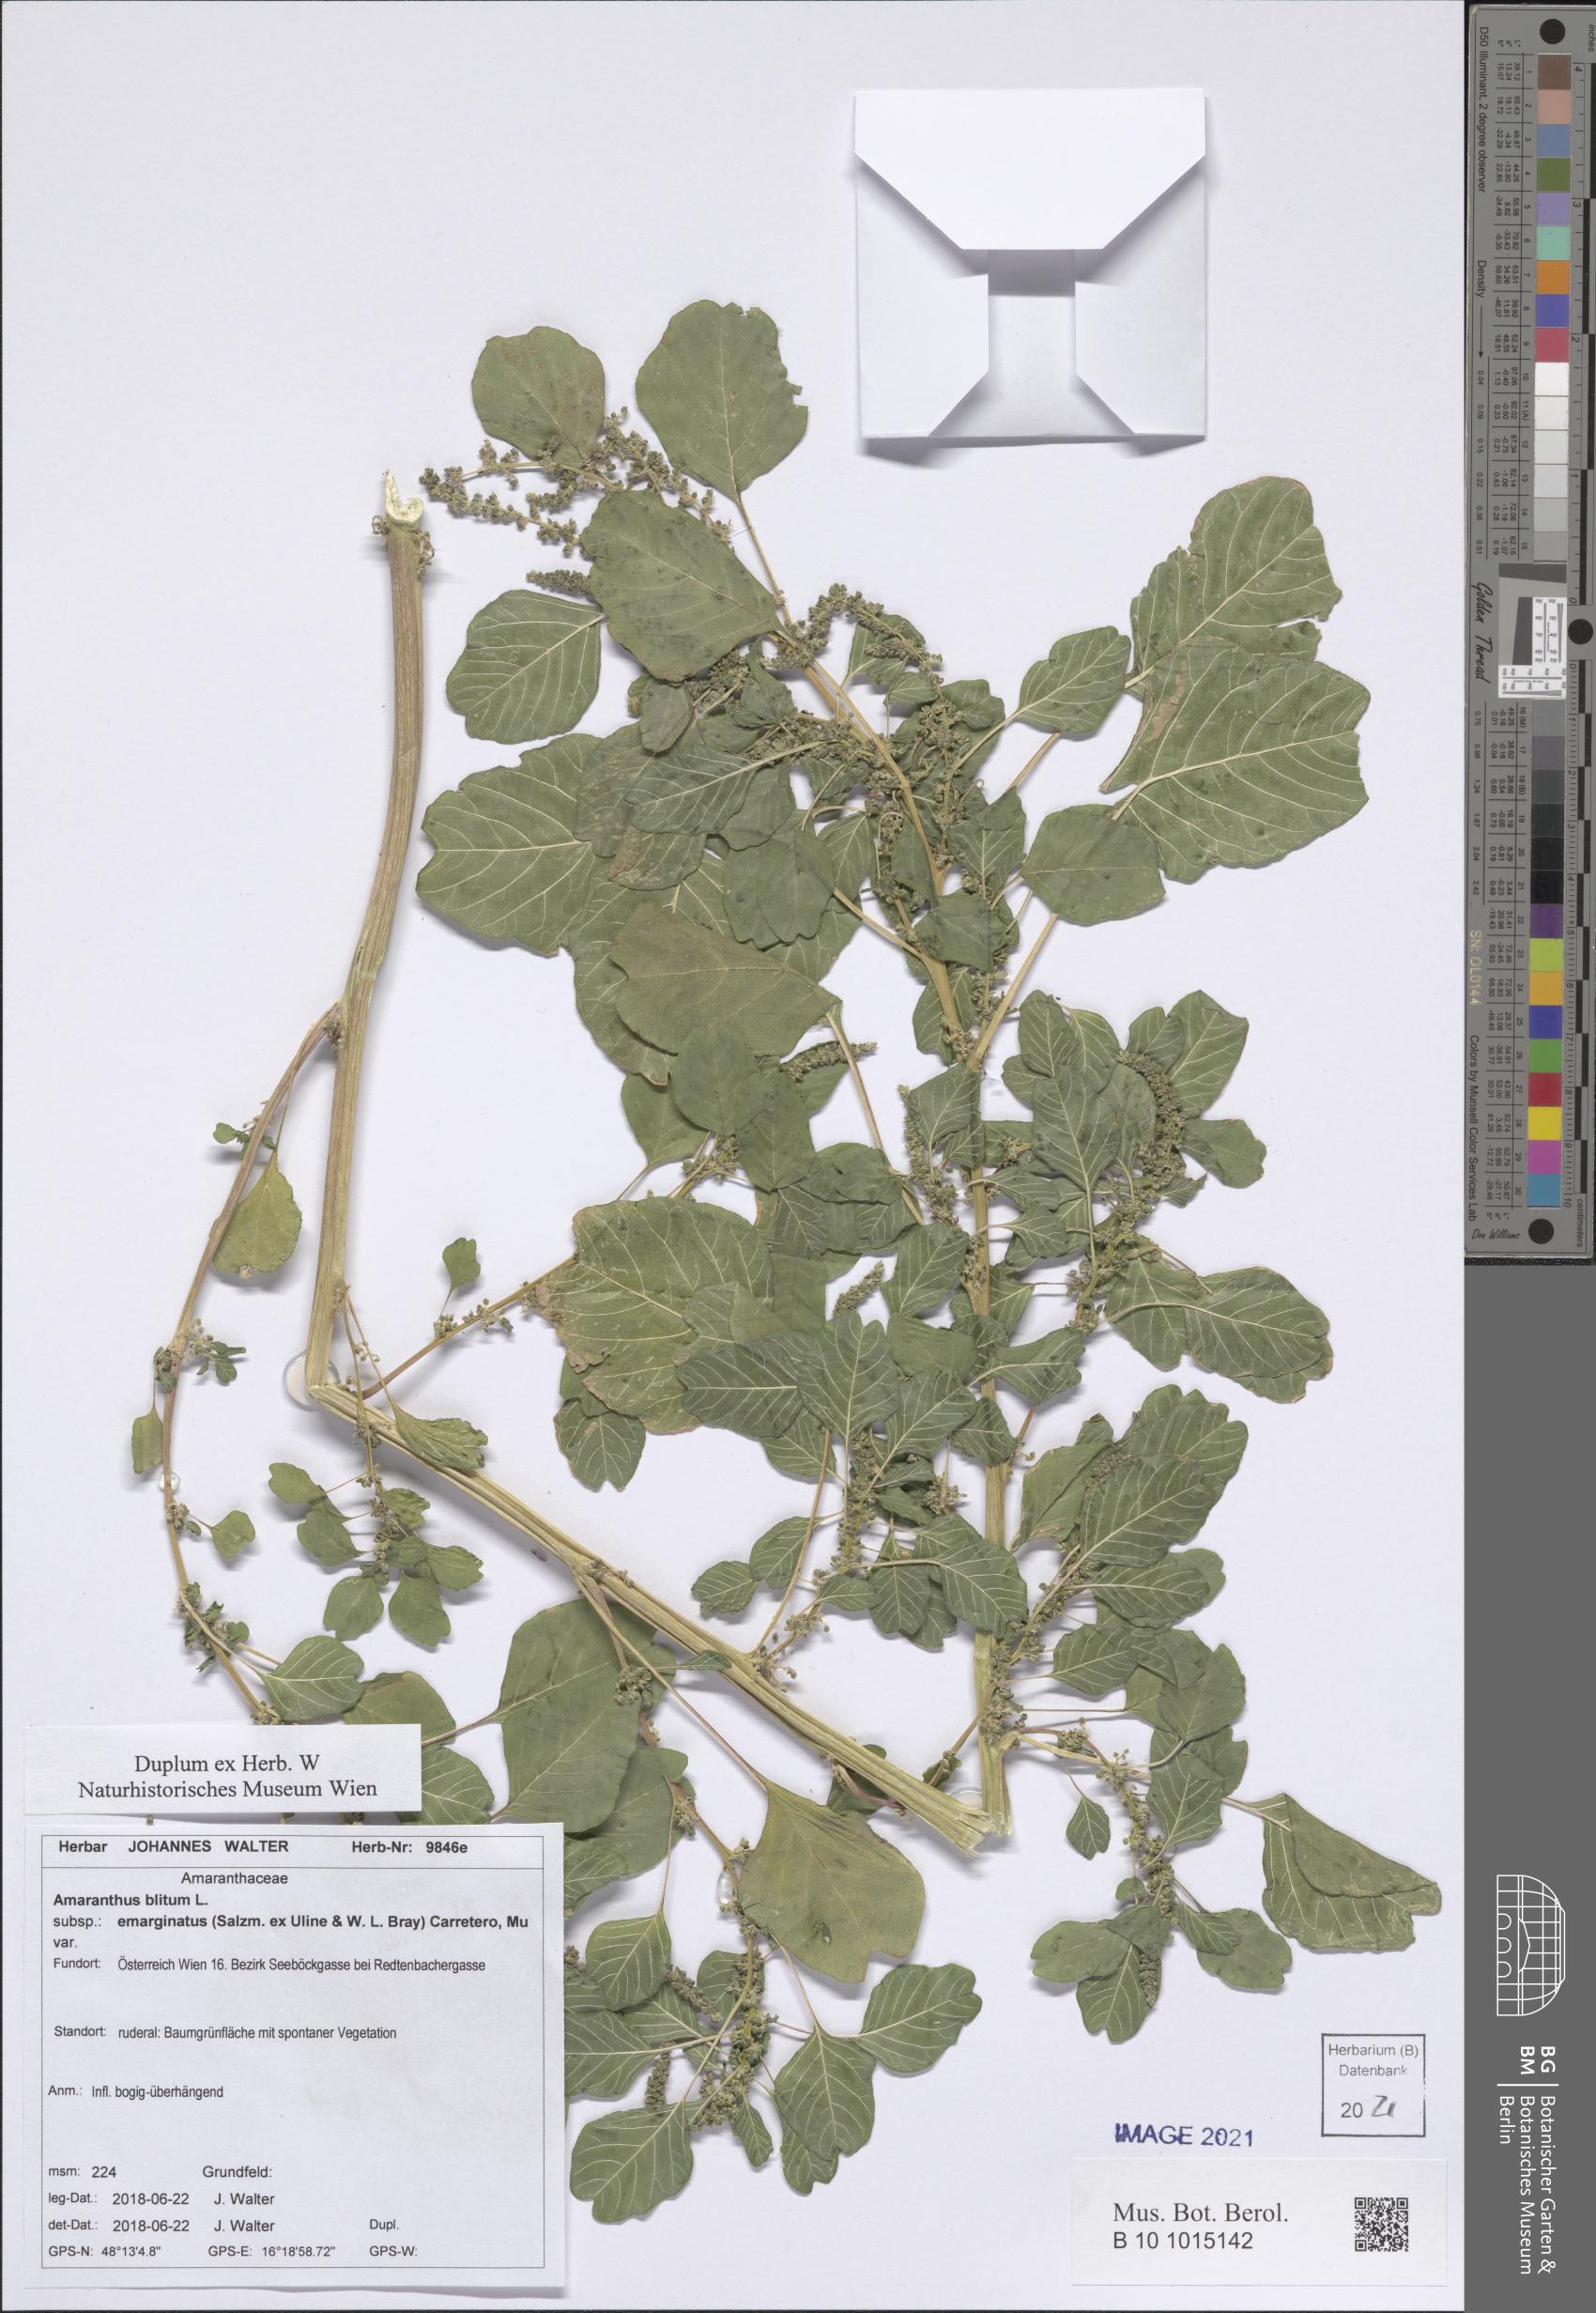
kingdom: Plantae
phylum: Tracheophyta
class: Magnoliopsida
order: Caryophyllales
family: Amaranthaceae
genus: Amaranthus
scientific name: Amaranthus emarginatus
